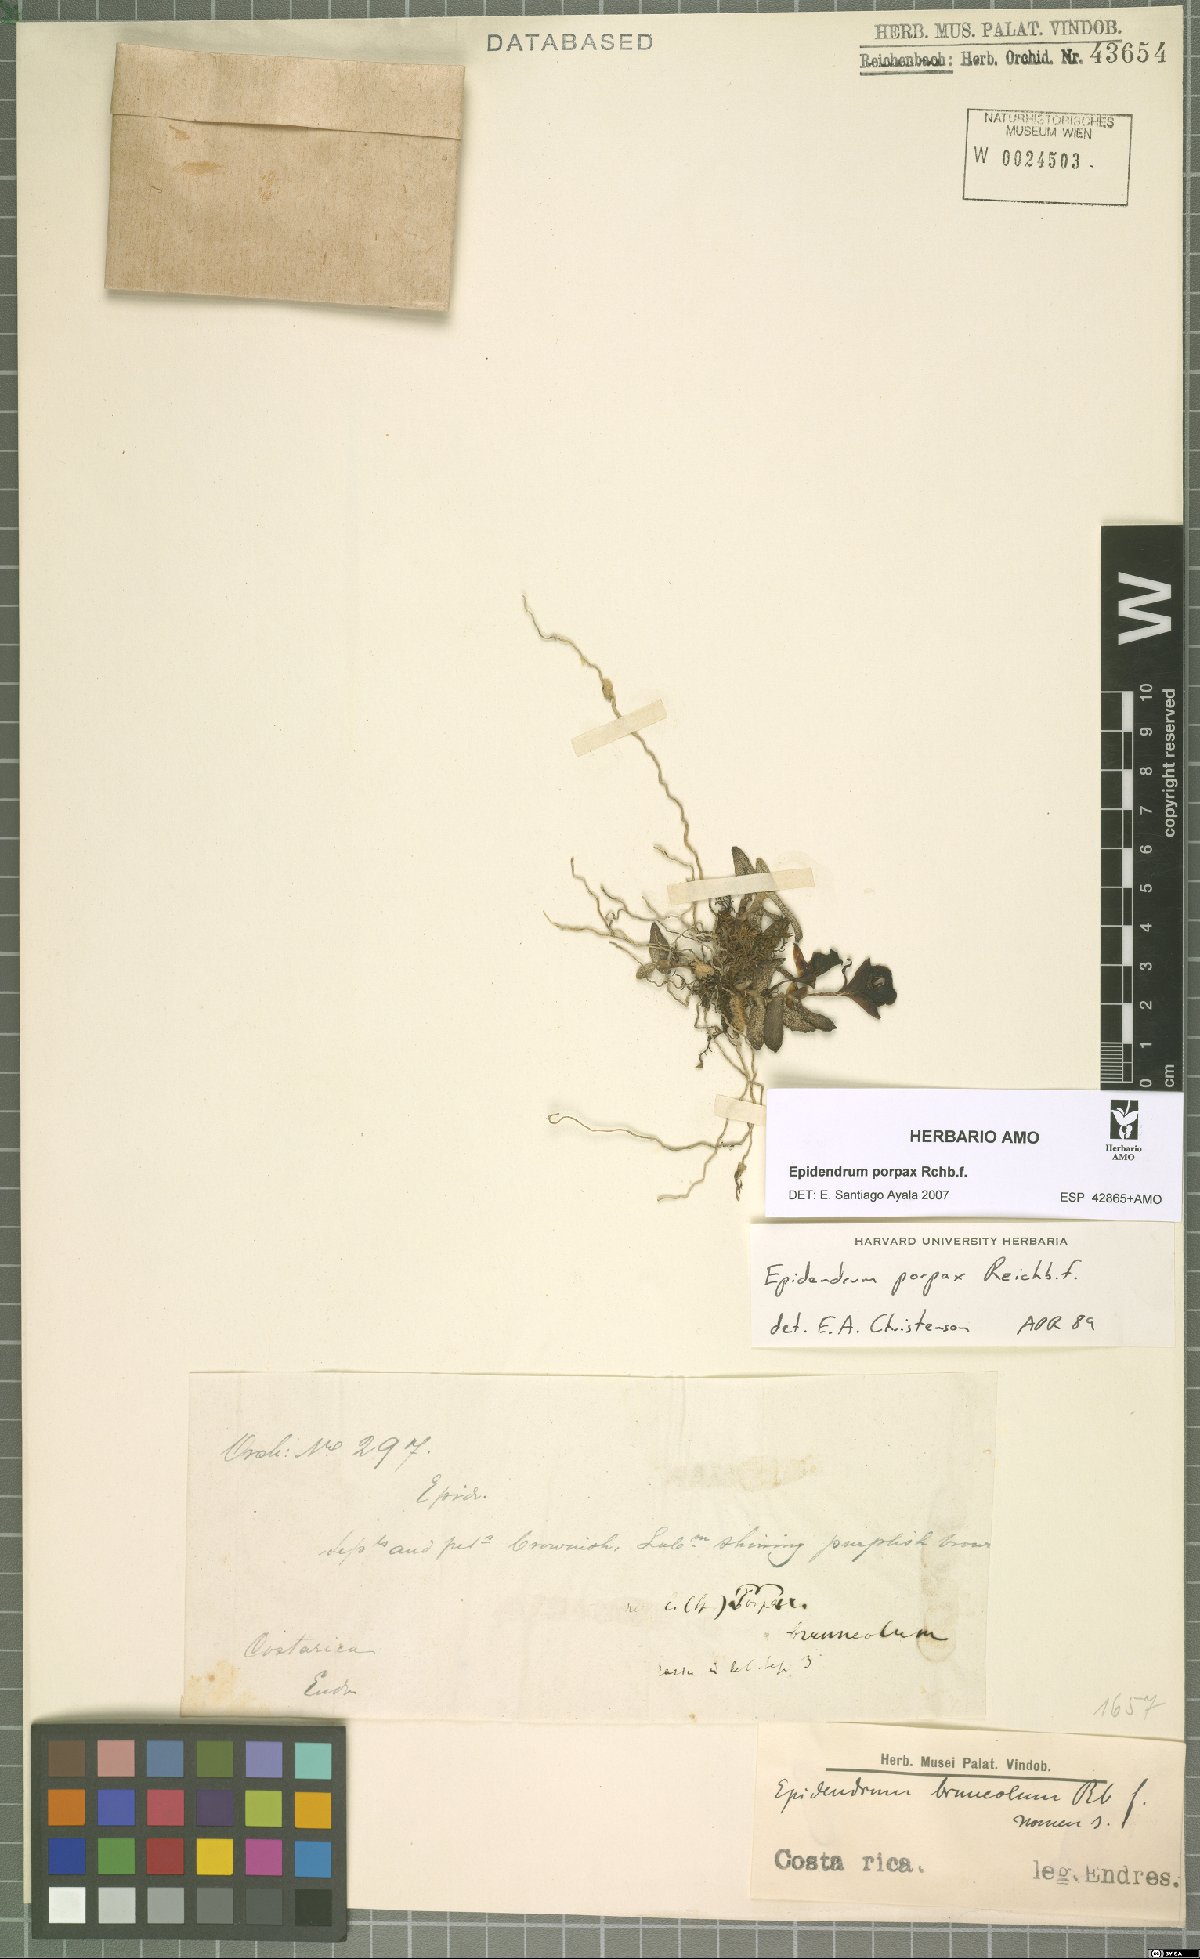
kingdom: Plantae
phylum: Tracheophyta
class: Liliopsida
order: Asparagales
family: Orchidaceae
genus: Epidendrum
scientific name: Epidendrum porpax
